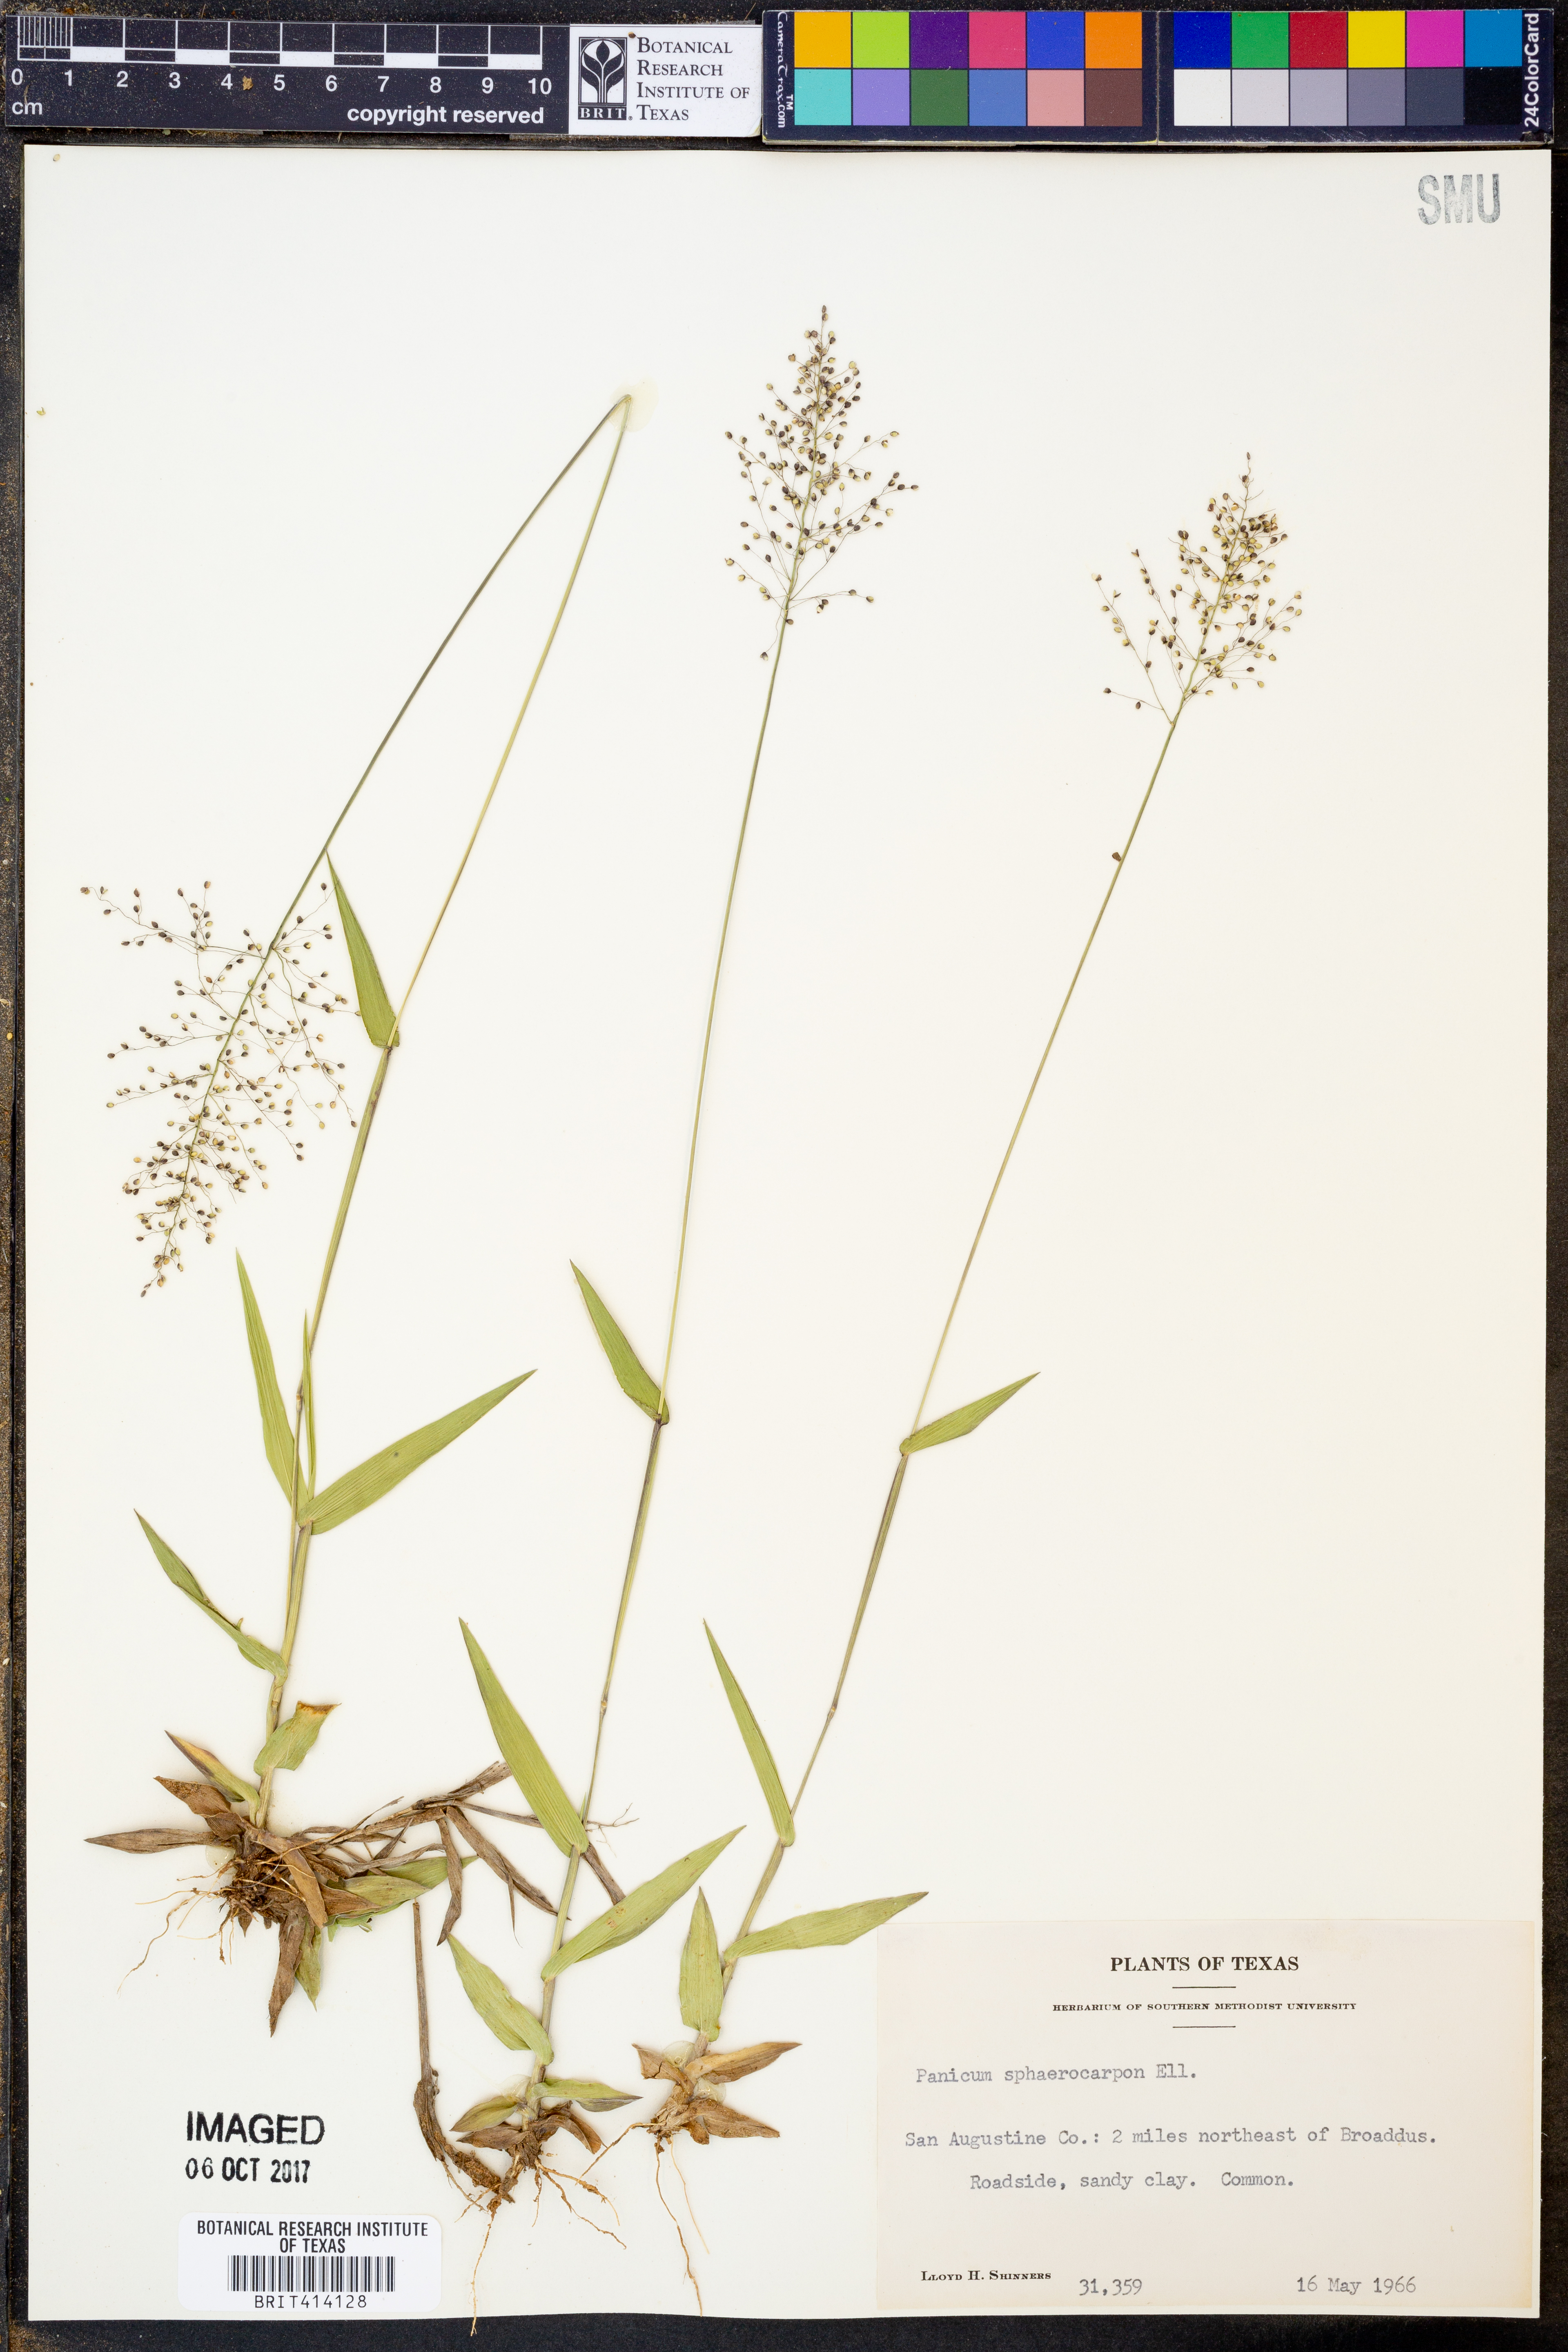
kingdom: Plantae
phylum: Tracheophyta
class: Liliopsida
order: Poales
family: Poaceae
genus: Dichanthelium
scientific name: Dichanthelium sphaerocarpon
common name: Round-fruited panicgrass
